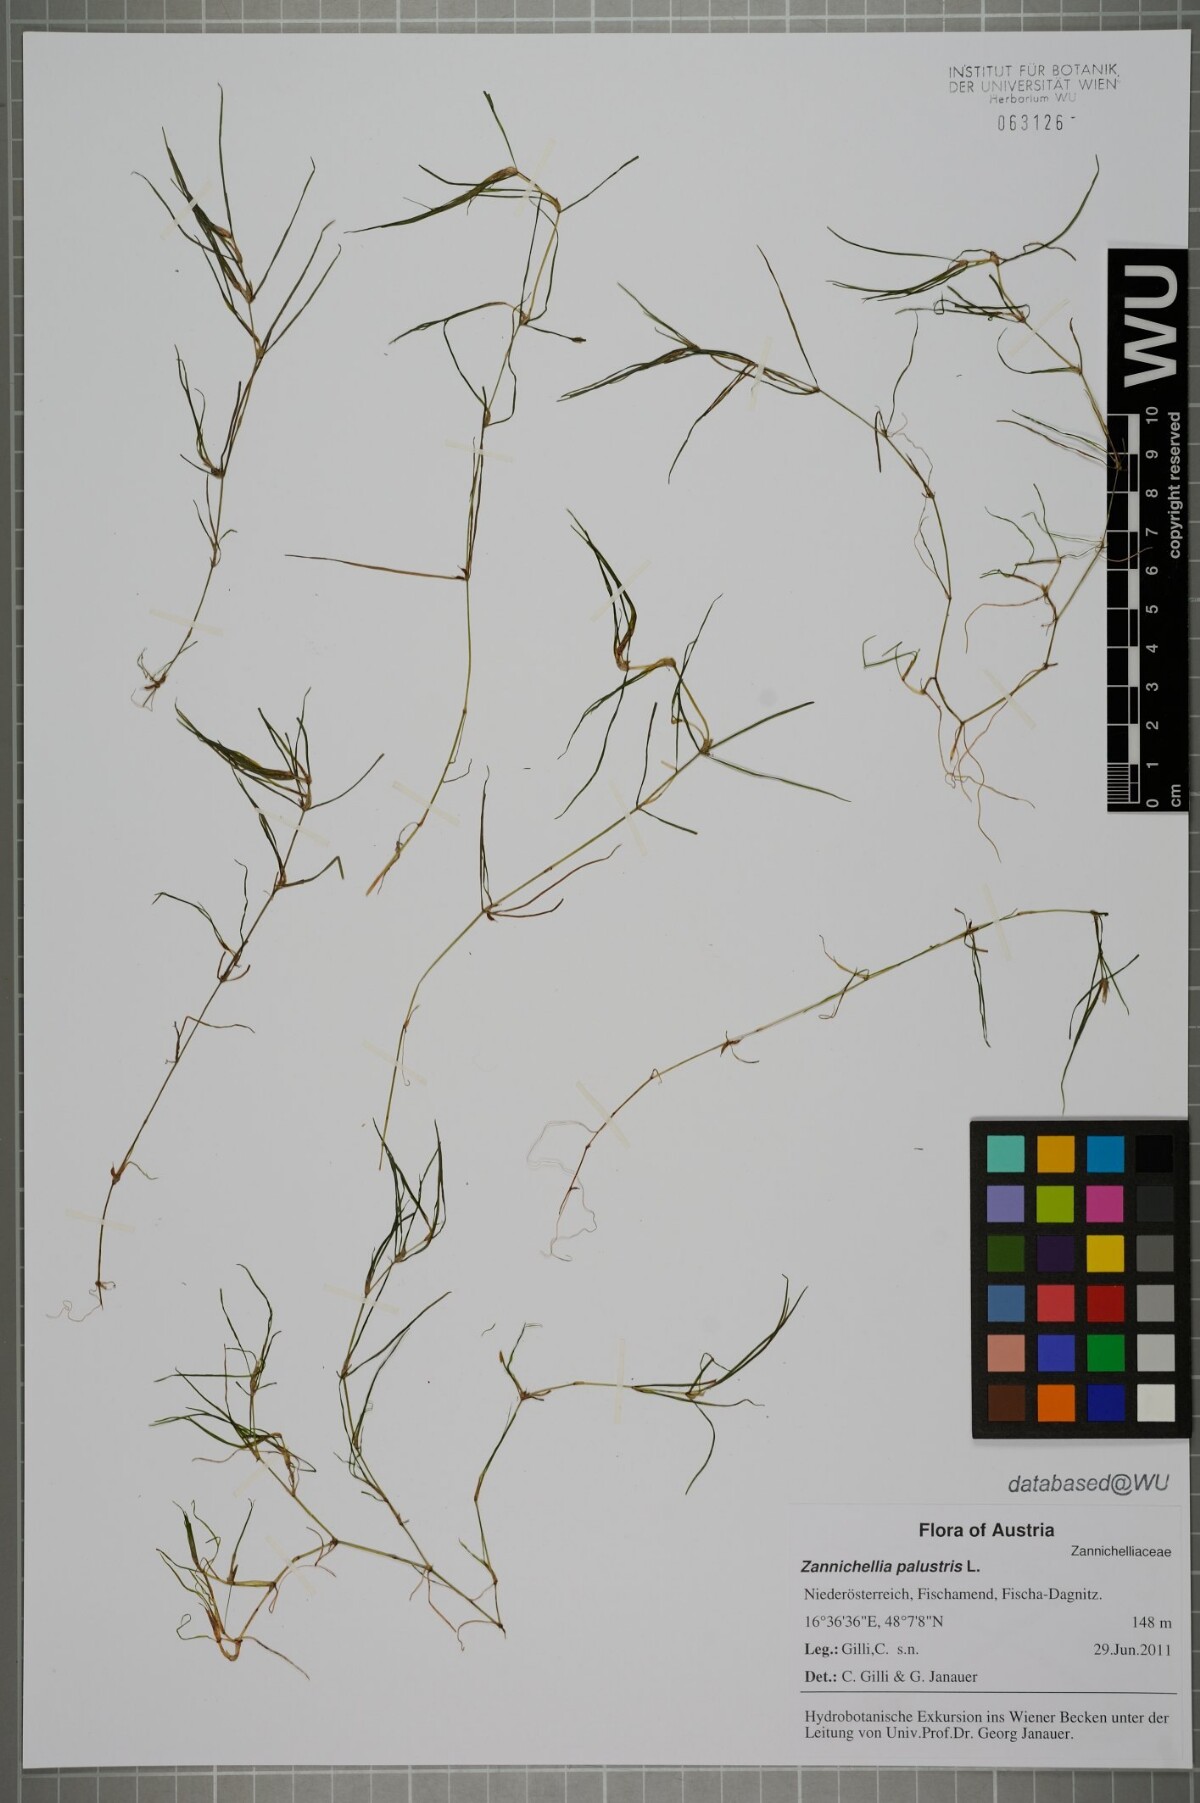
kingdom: Plantae
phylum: Tracheophyta
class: Liliopsida
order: Alismatales
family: Potamogetonaceae
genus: Zannichellia
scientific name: Zannichellia palustris
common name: Horned pondweed
